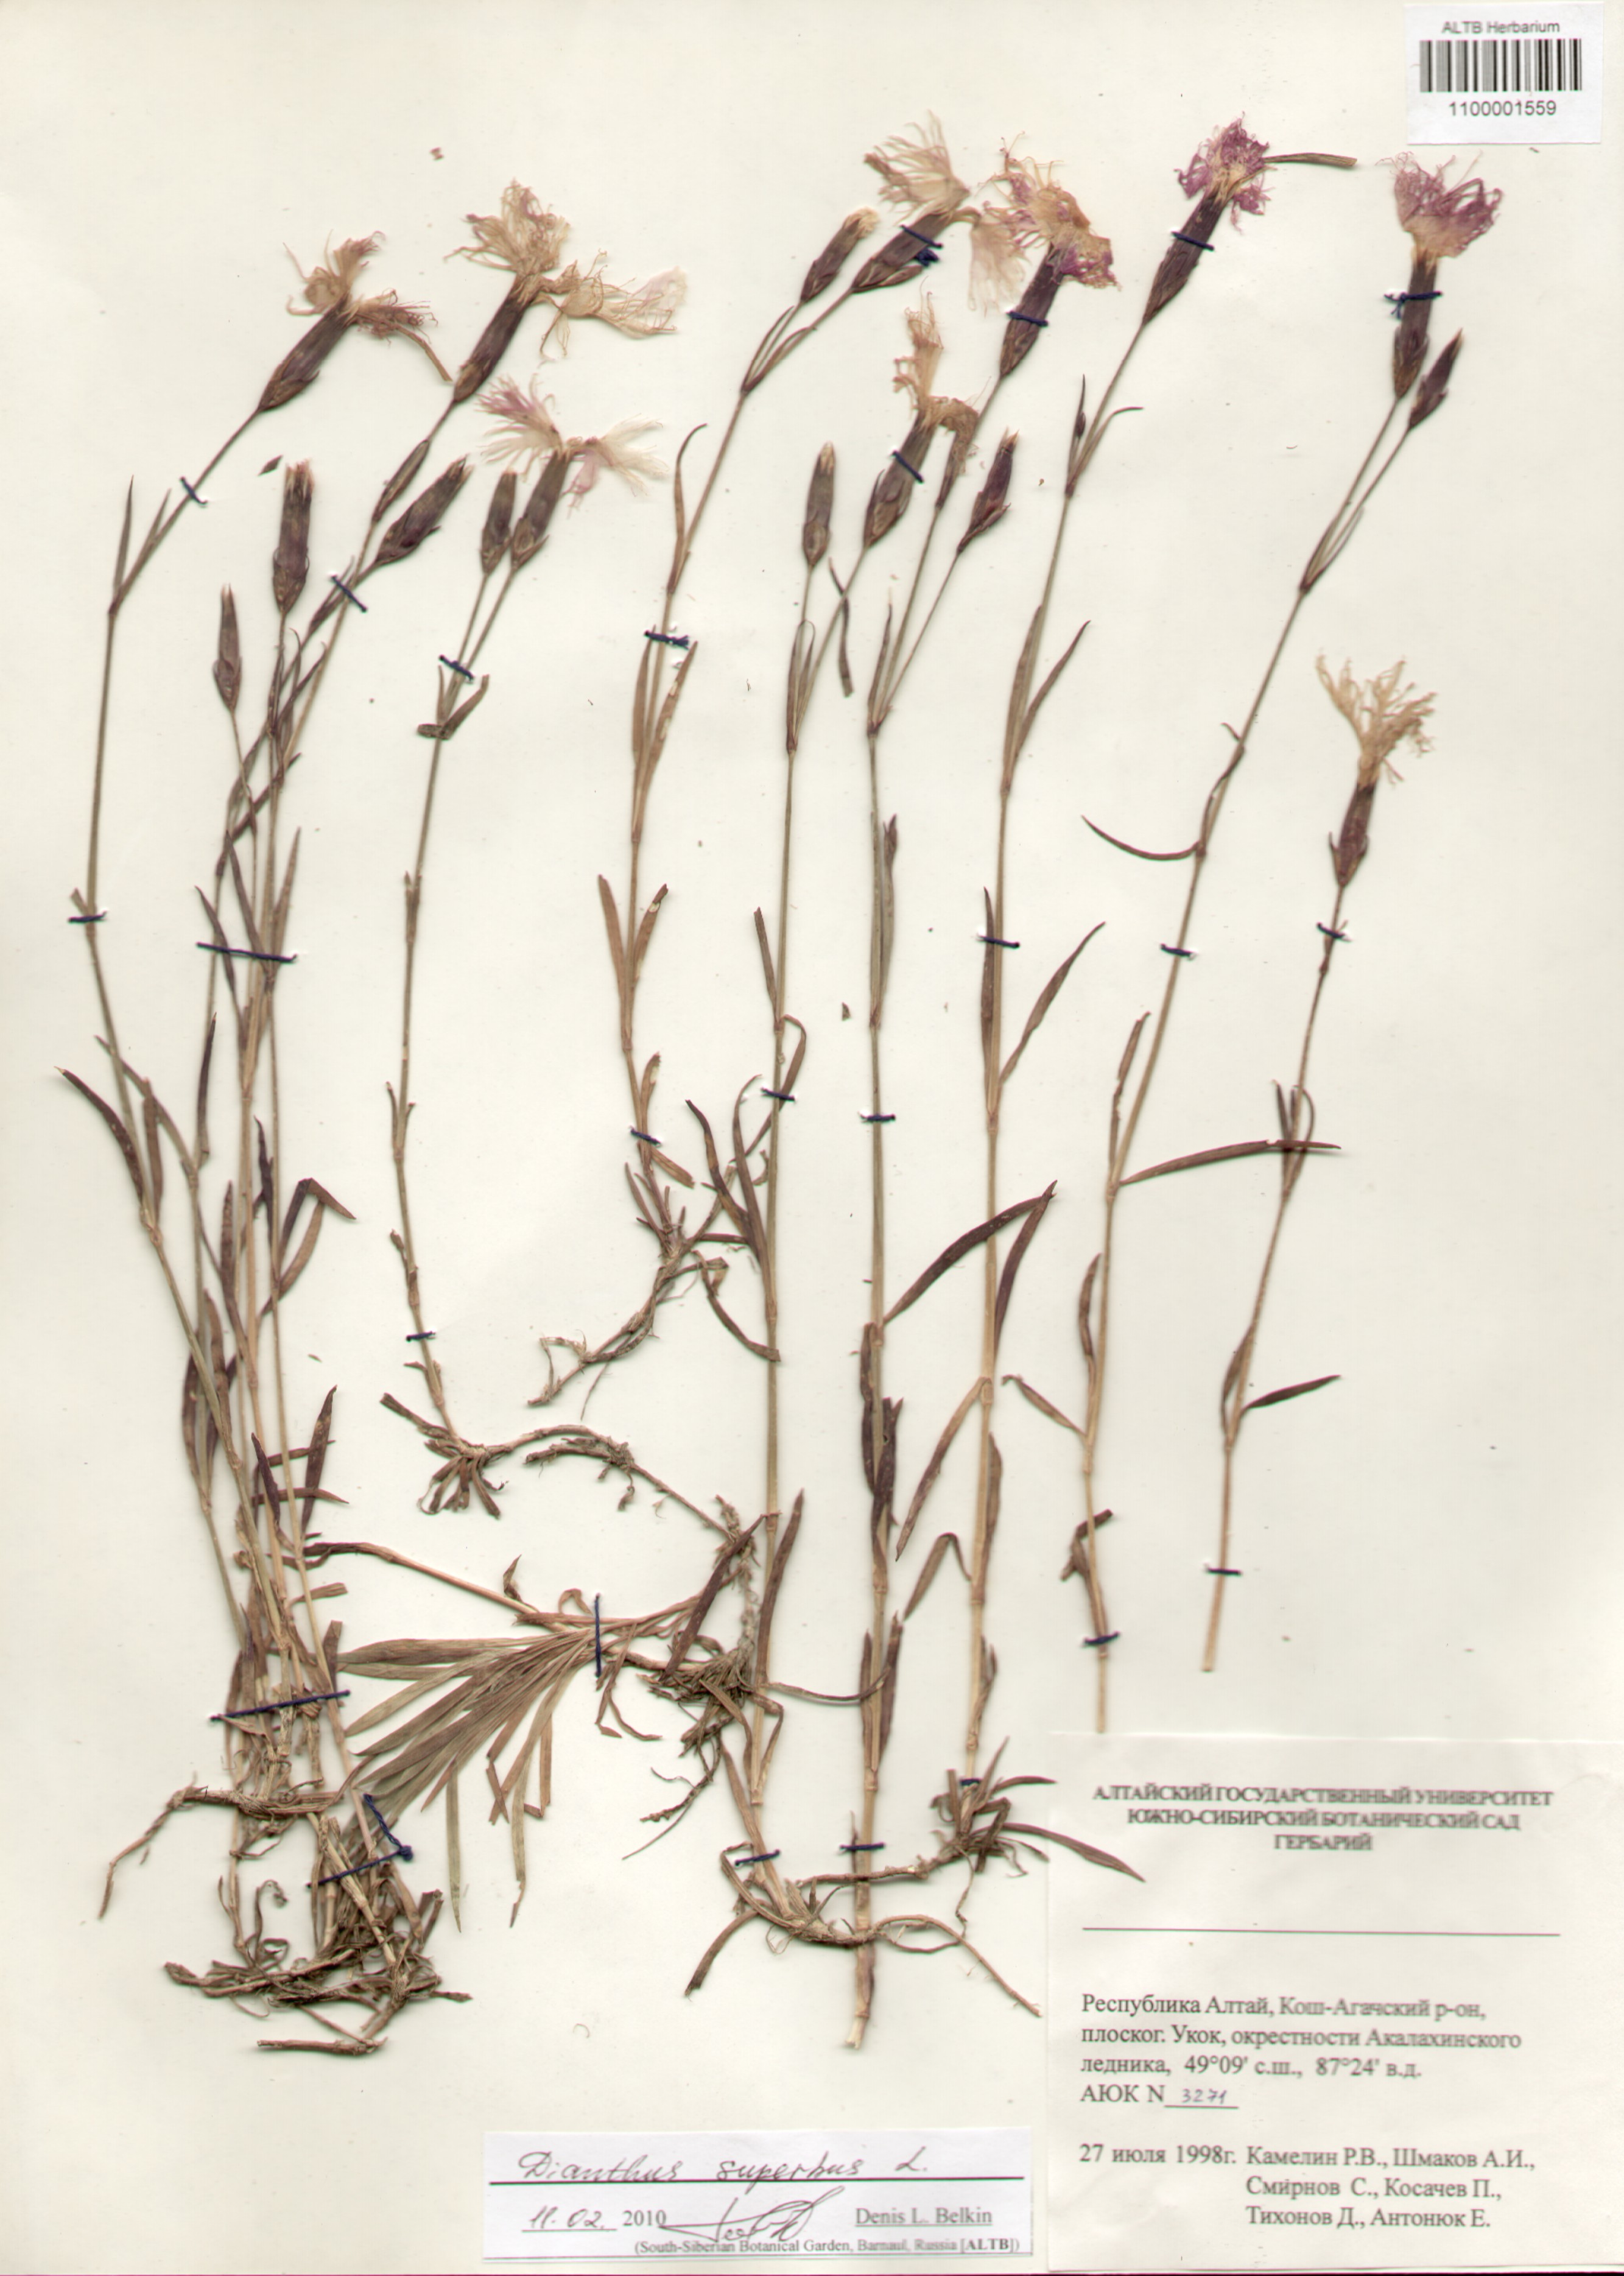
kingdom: Plantae
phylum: Tracheophyta
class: Magnoliopsida
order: Caryophyllales
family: Caryophyllaceae
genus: Dianthus
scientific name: Dianthus superbus
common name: Fringed pink
